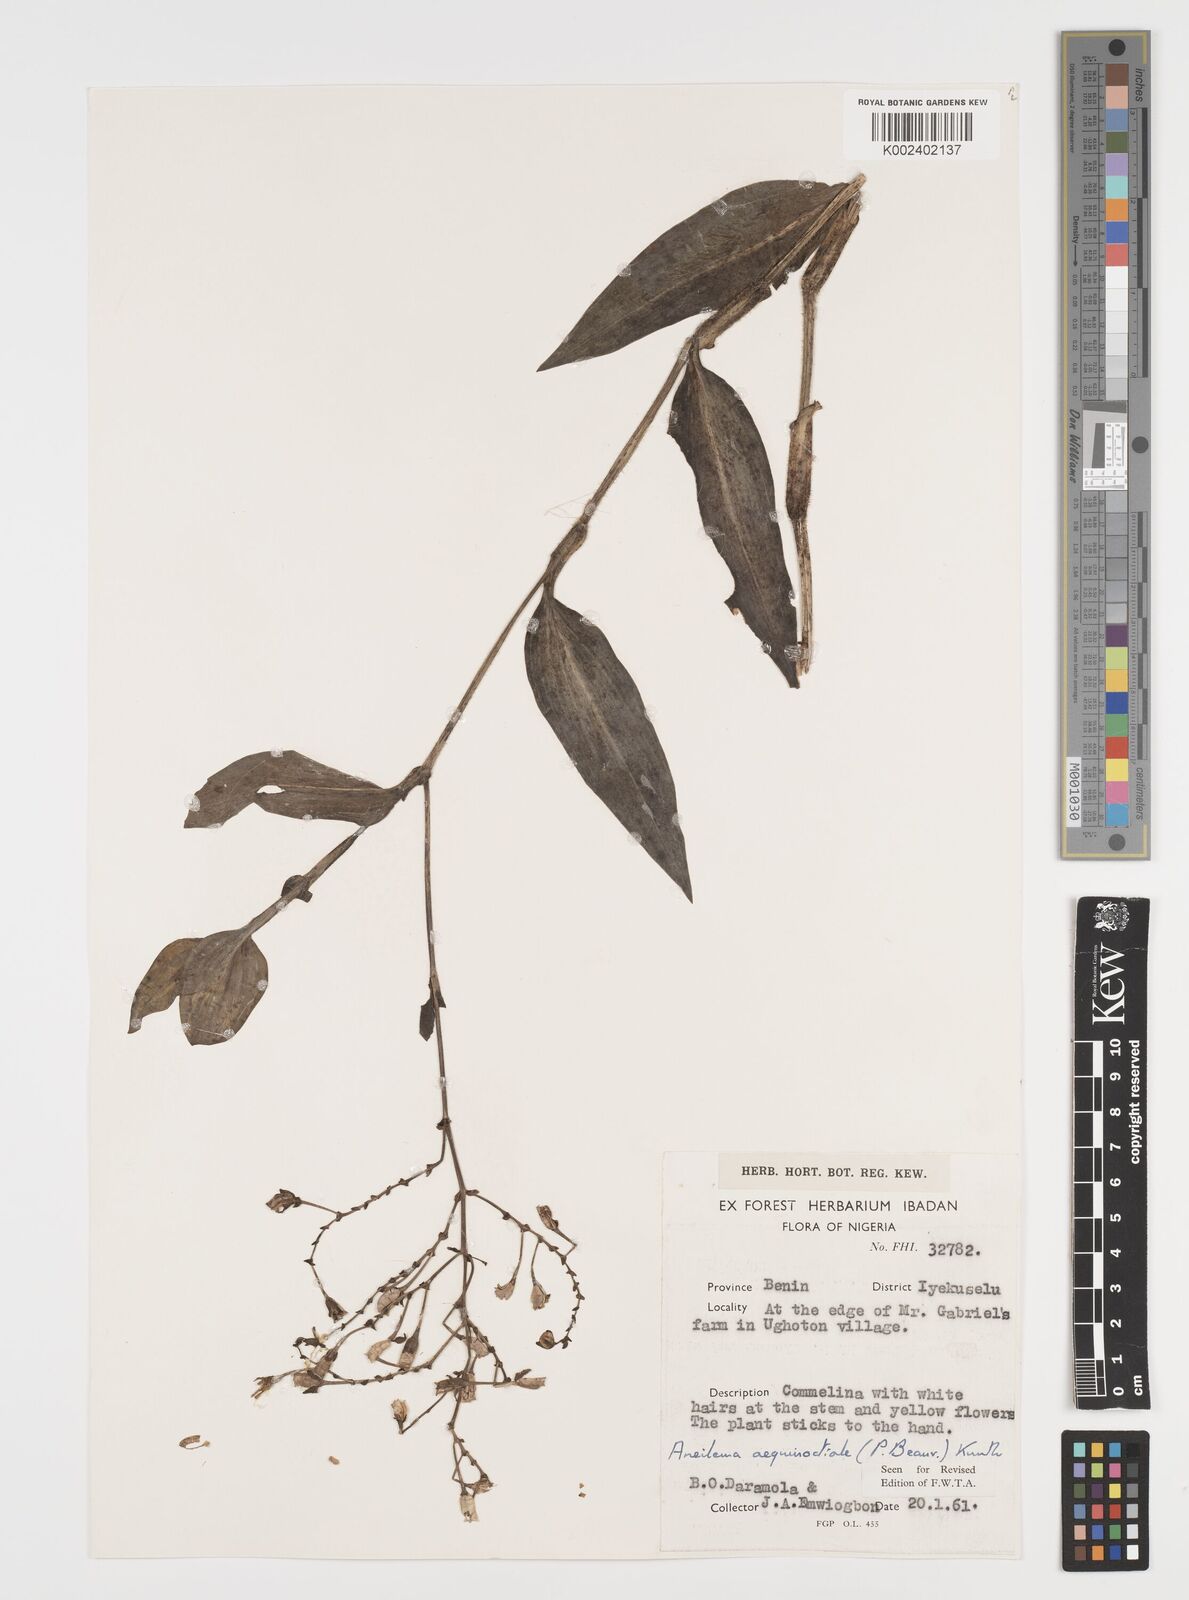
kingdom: Plantae
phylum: Tracheophyta
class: Liliopsida
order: Commelinales
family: Commelinaceae
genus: Aneilema
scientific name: Aneilema aequinoctiale
